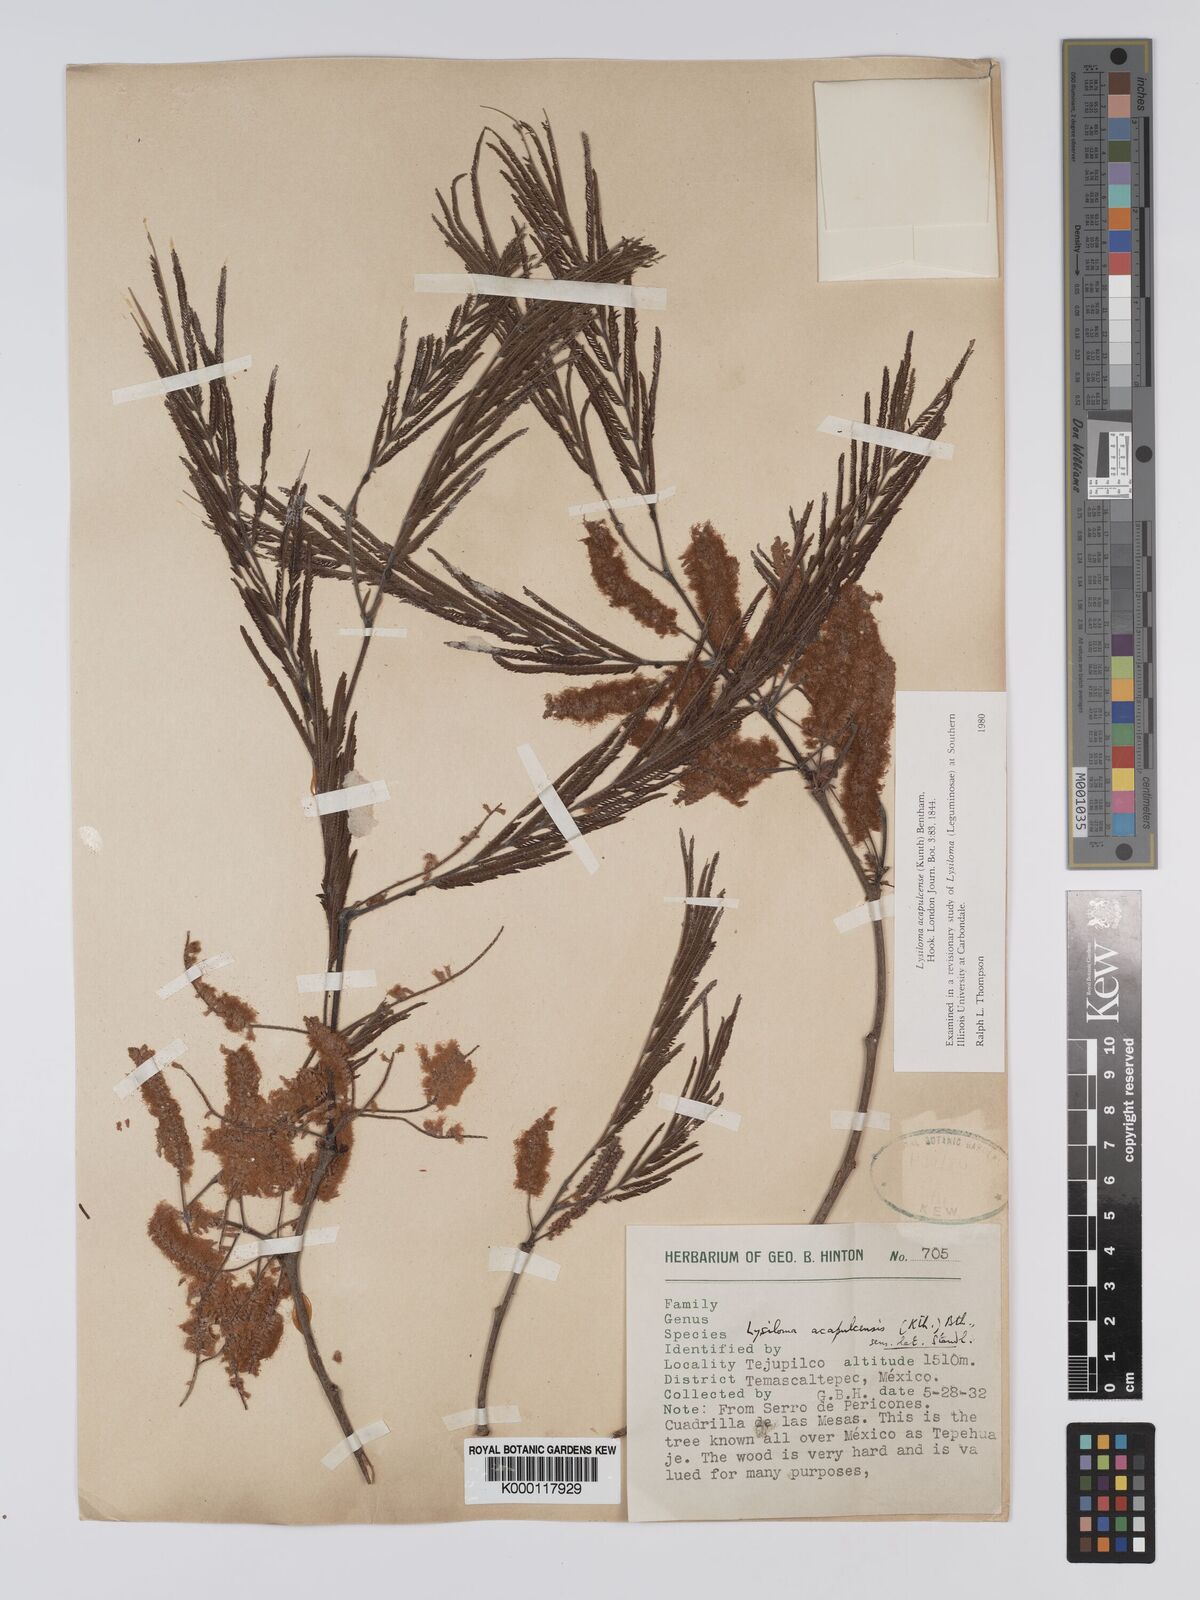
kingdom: Plantae
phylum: Tracheophyta
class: Magnoliopsida
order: Fabales
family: Fabaceae
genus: Lysiloma
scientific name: Lysiloma acapulcense
